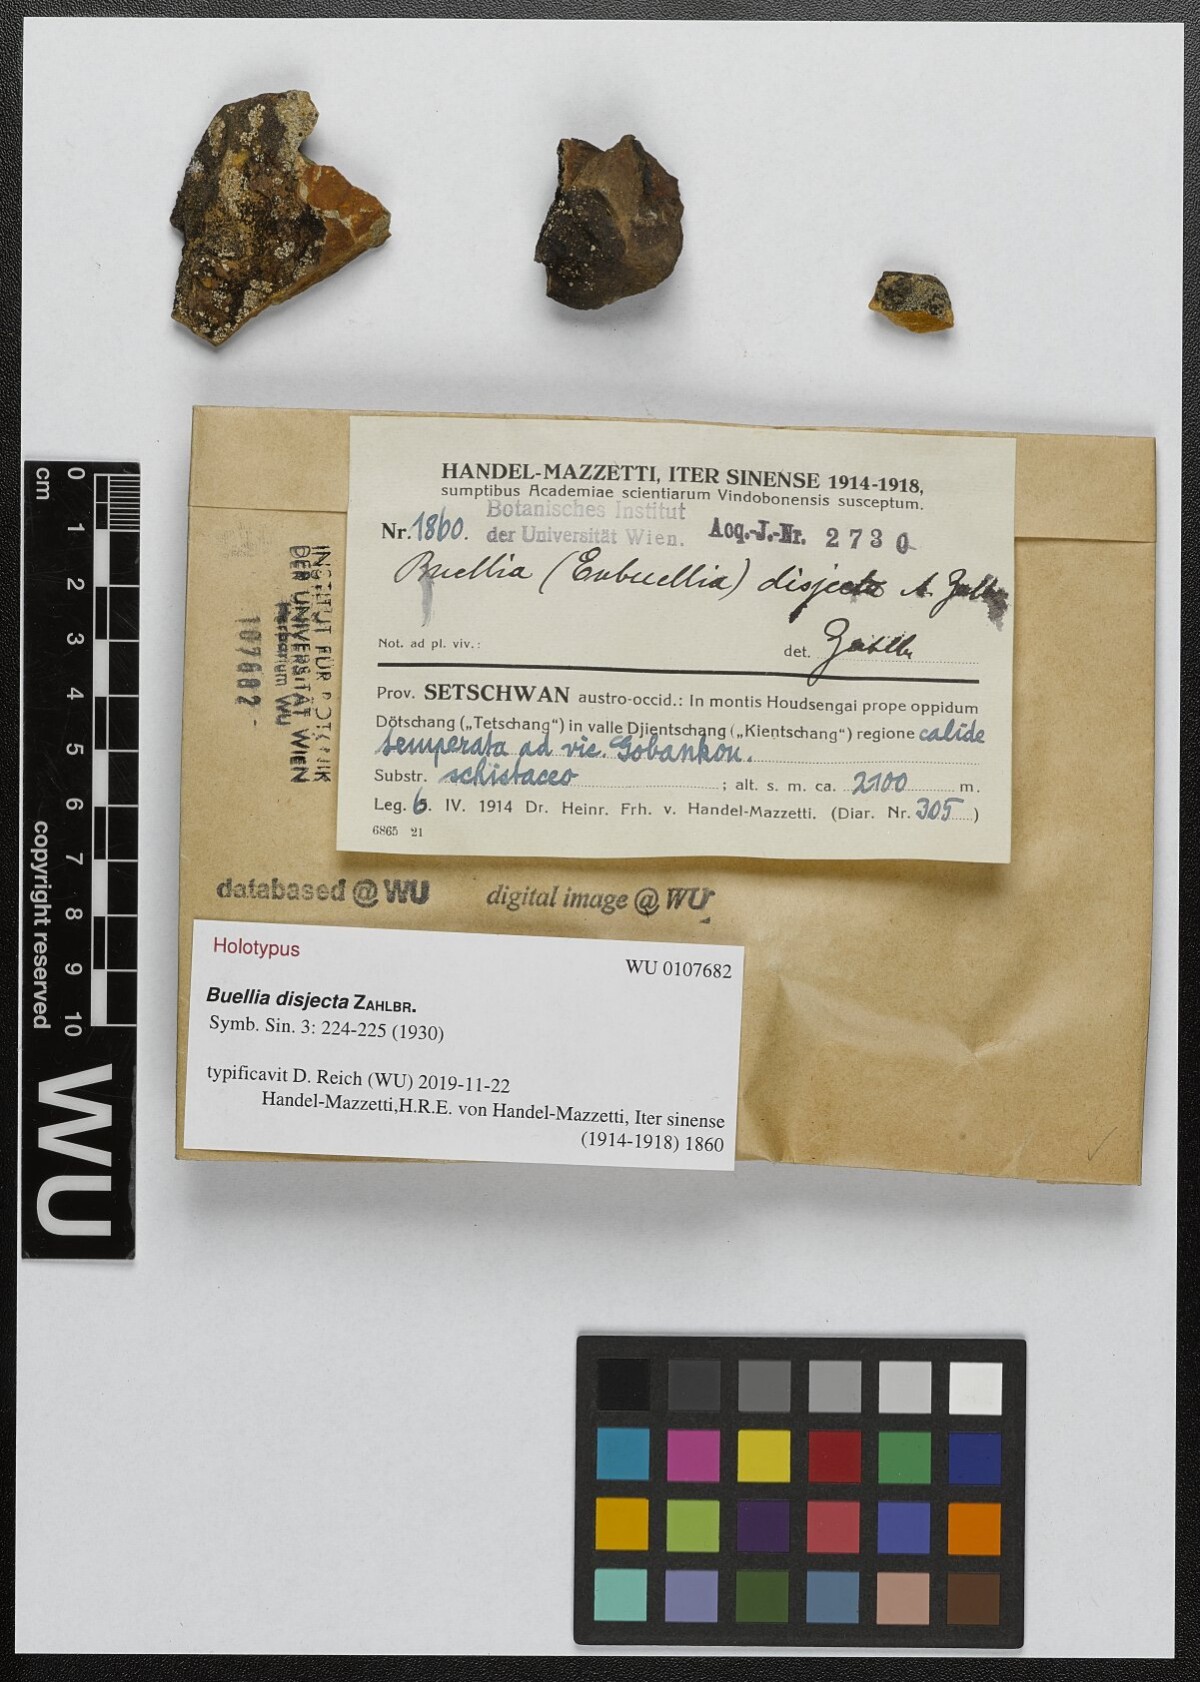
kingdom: Fungi
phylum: Ascomycota
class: Lecanoromycetes
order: Caliciales
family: Physciaceae
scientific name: Physciaceae
